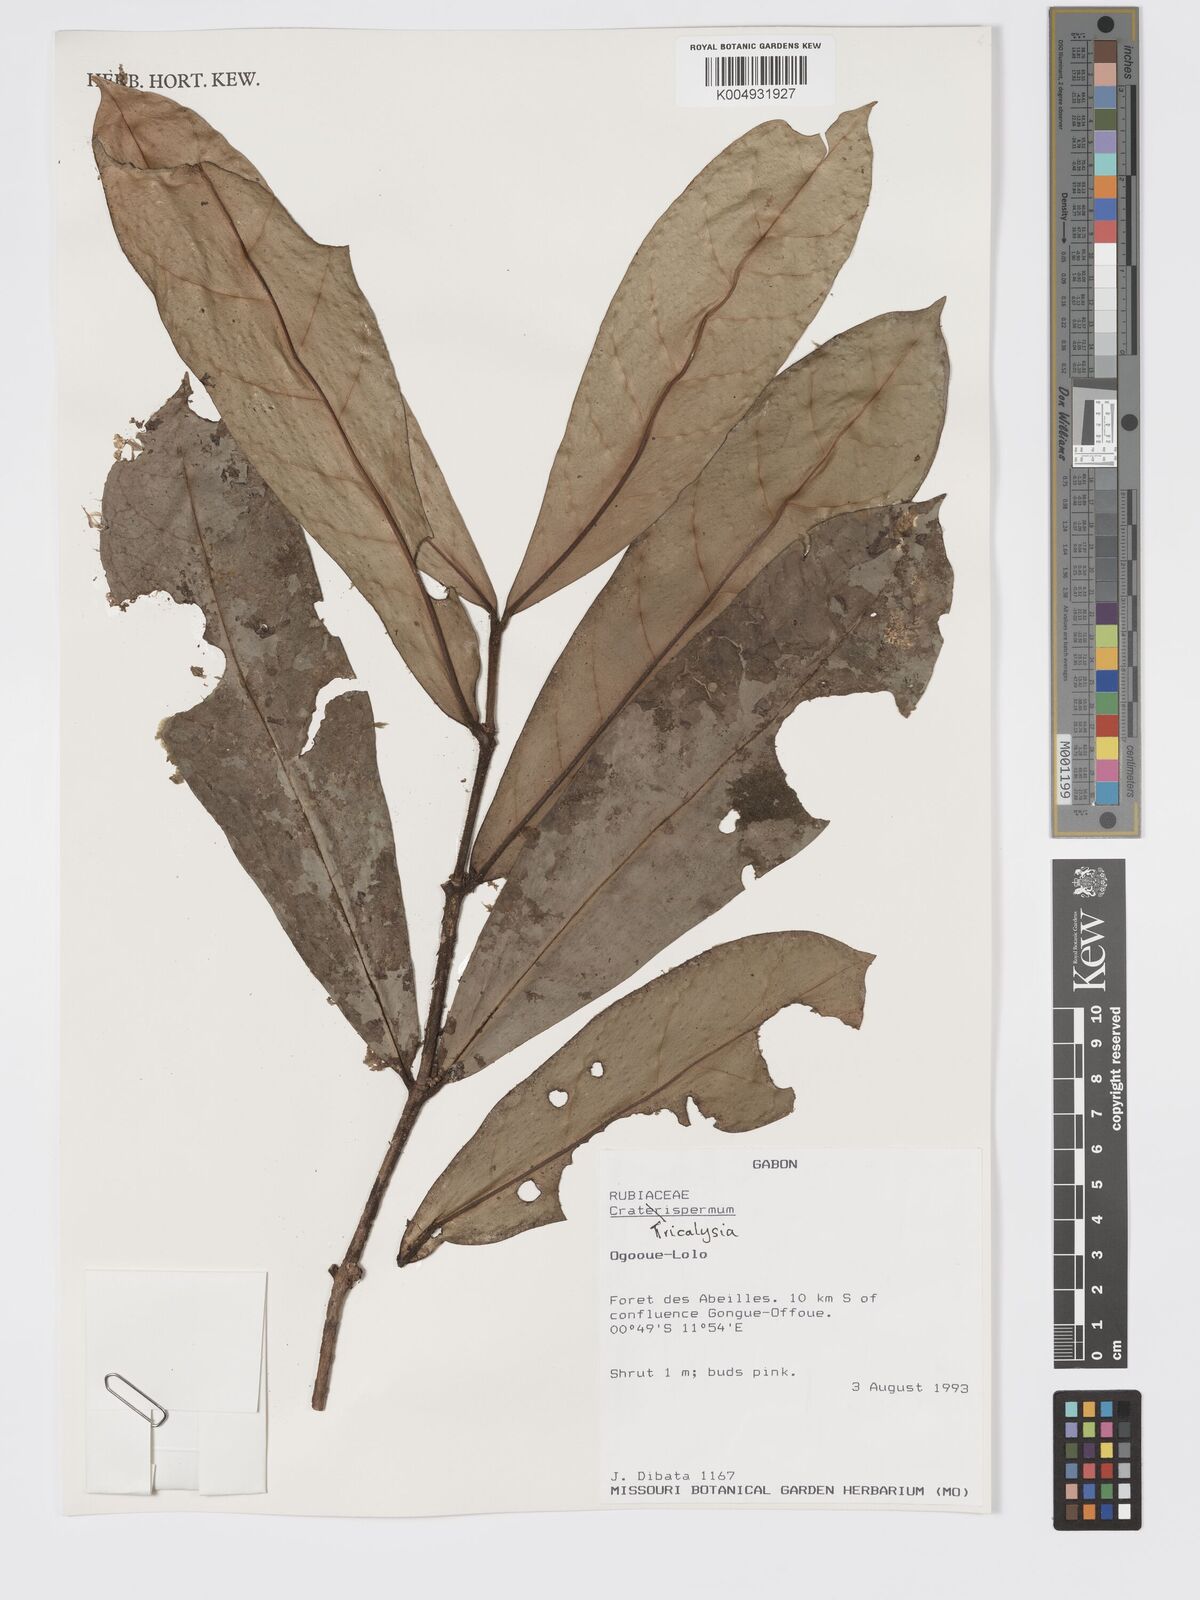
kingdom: Plantae
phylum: Tracheophyta
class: Magnoliopsida
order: Gentianales
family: Rubiaceae
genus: Tricalysia
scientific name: Tricalysia
